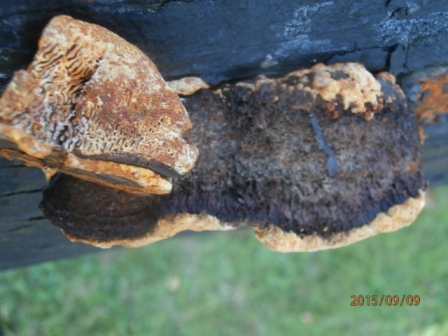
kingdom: Fungi
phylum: Basidiomycota
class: Agaricomycetes
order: Gloeophyllales
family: Gloeophyllaceae
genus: Gloeophyllum
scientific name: Gloeophyllum odoratum
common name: duftende korkhat
